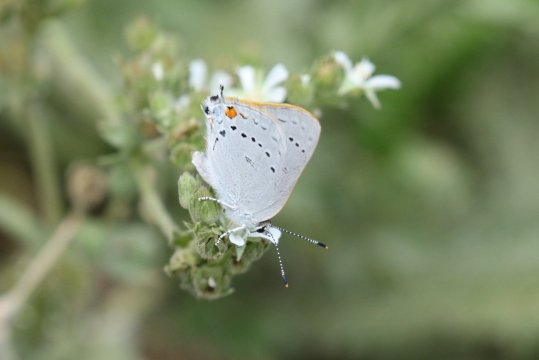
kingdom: Animalia
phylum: Arthropoda
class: Insecta
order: Lepidoptera
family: Lycaenidae
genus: Strymon
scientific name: Strymon sylvinus
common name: Sylvan Hairstreak
